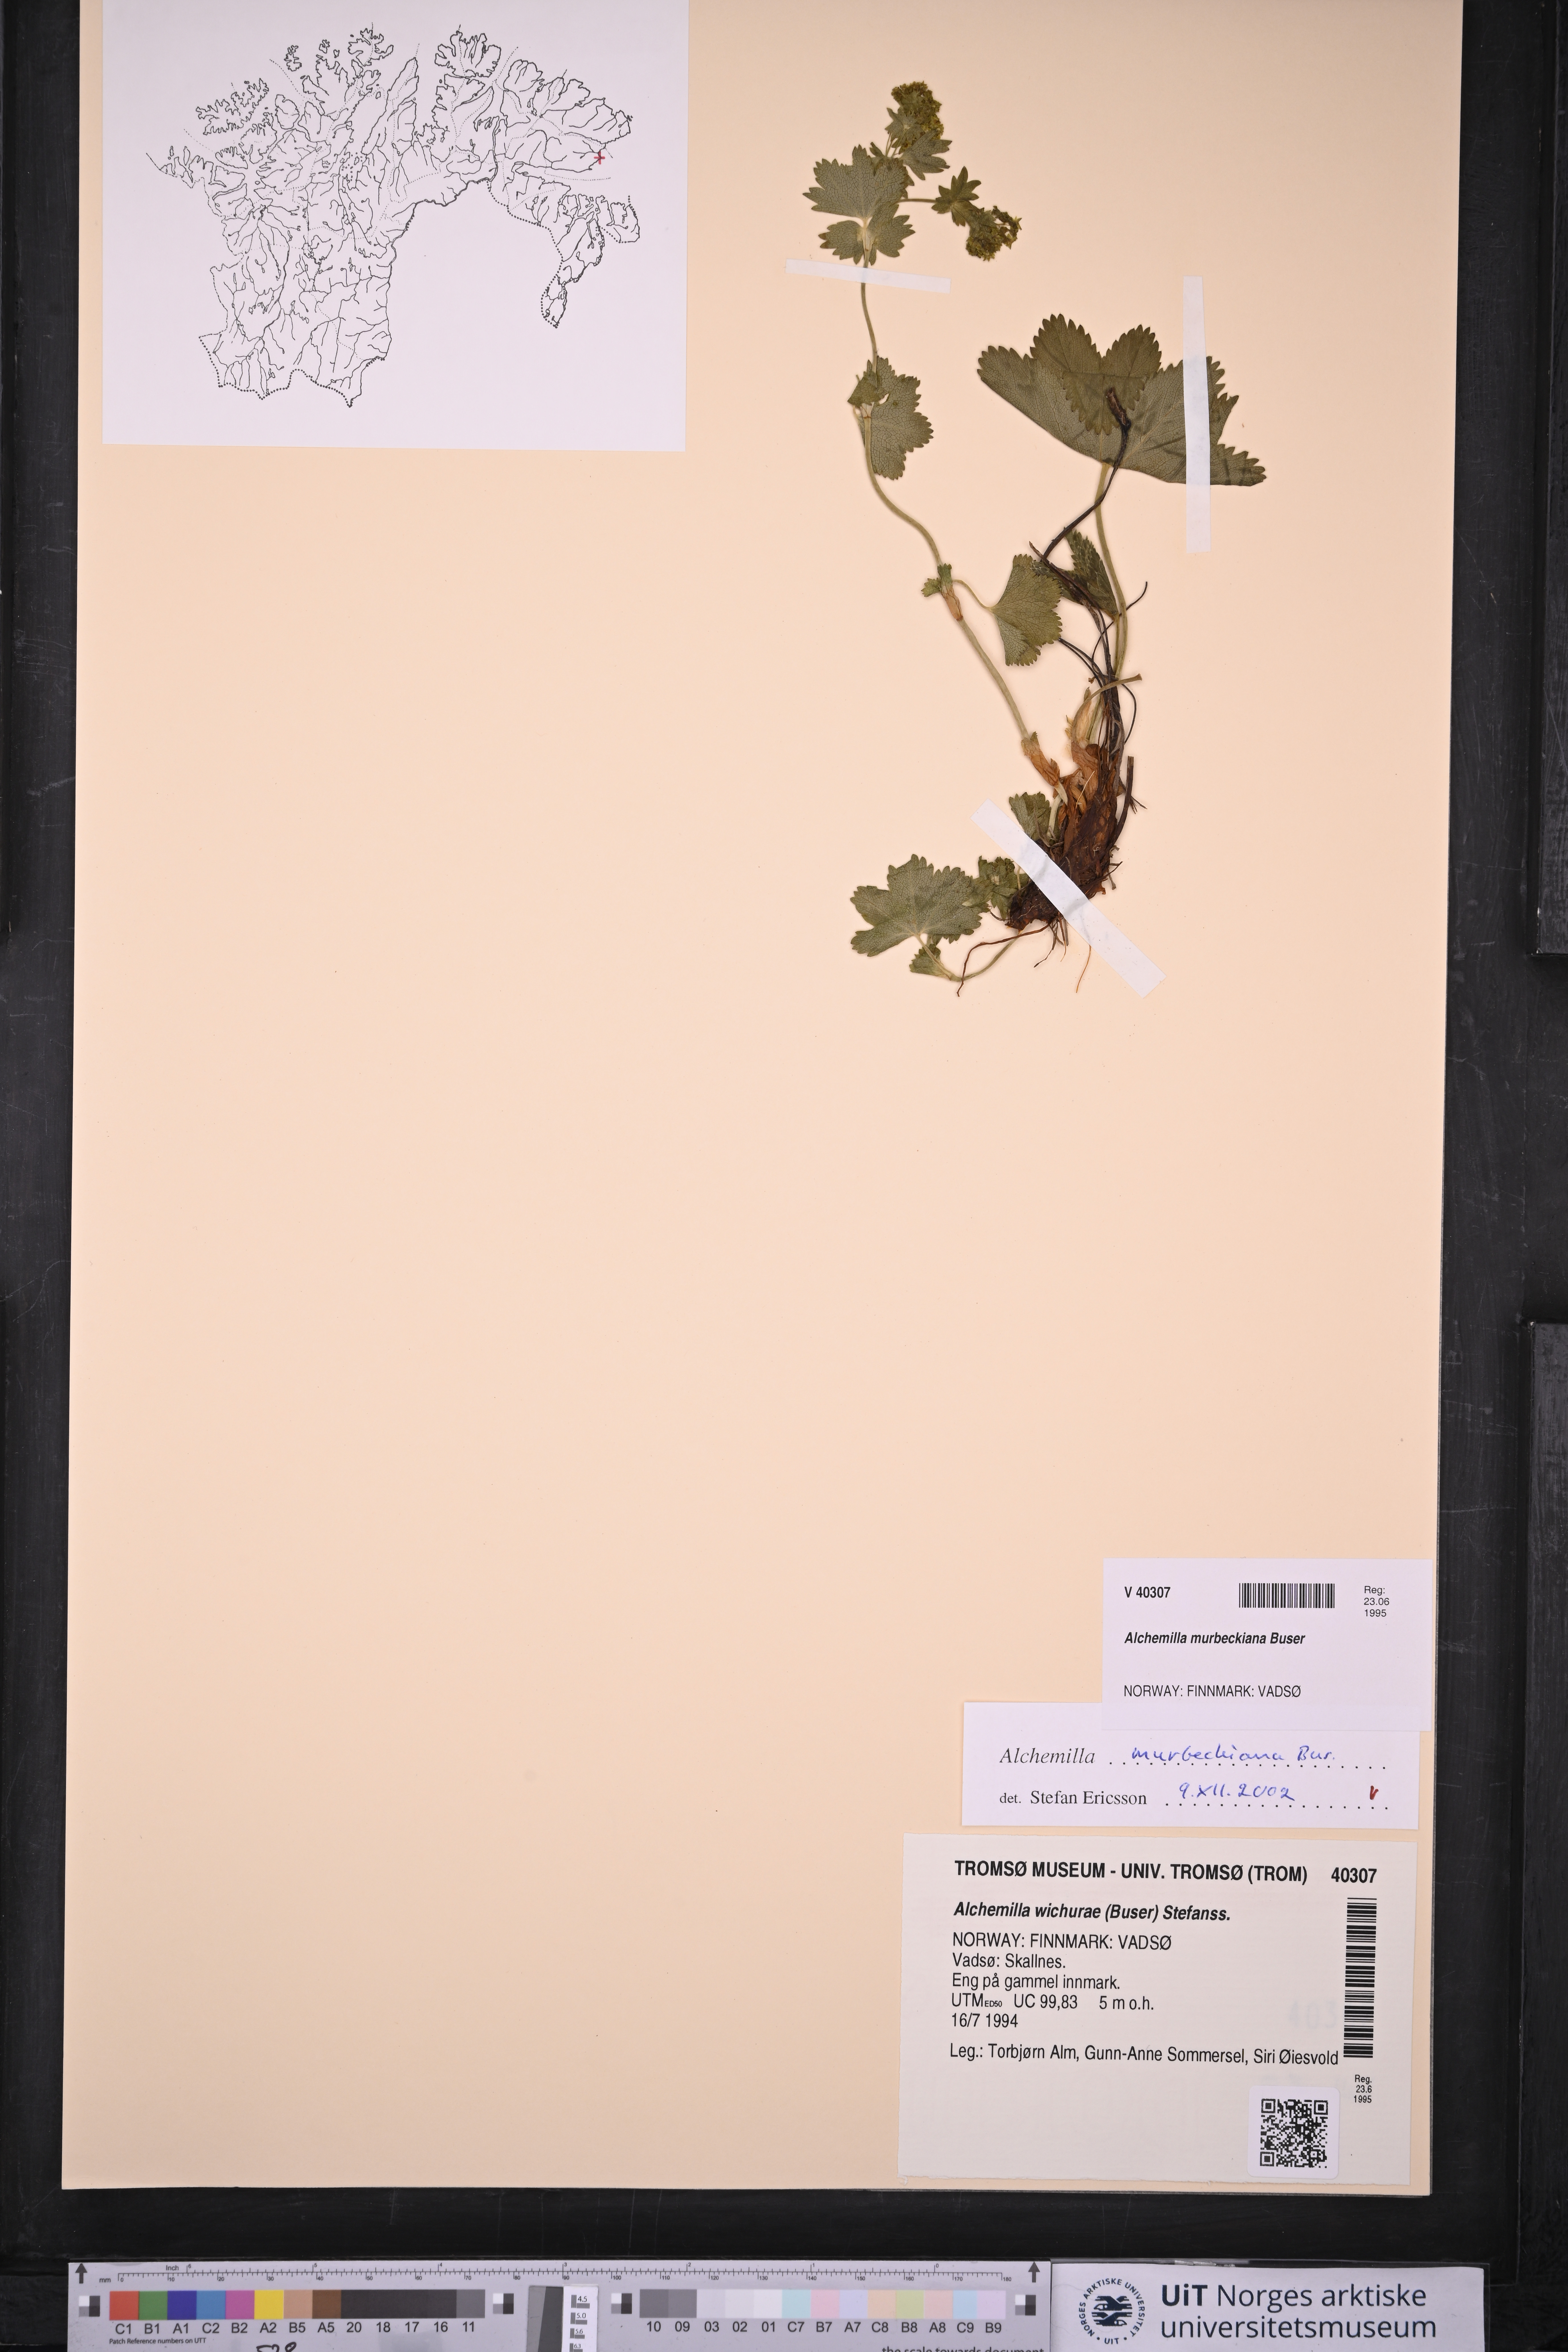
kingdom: Plantae
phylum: Tracheophyta
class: Magnoliopsida
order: Rosales
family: Rosaceae
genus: Alchemilla
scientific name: Alchemilla murbeckiana
